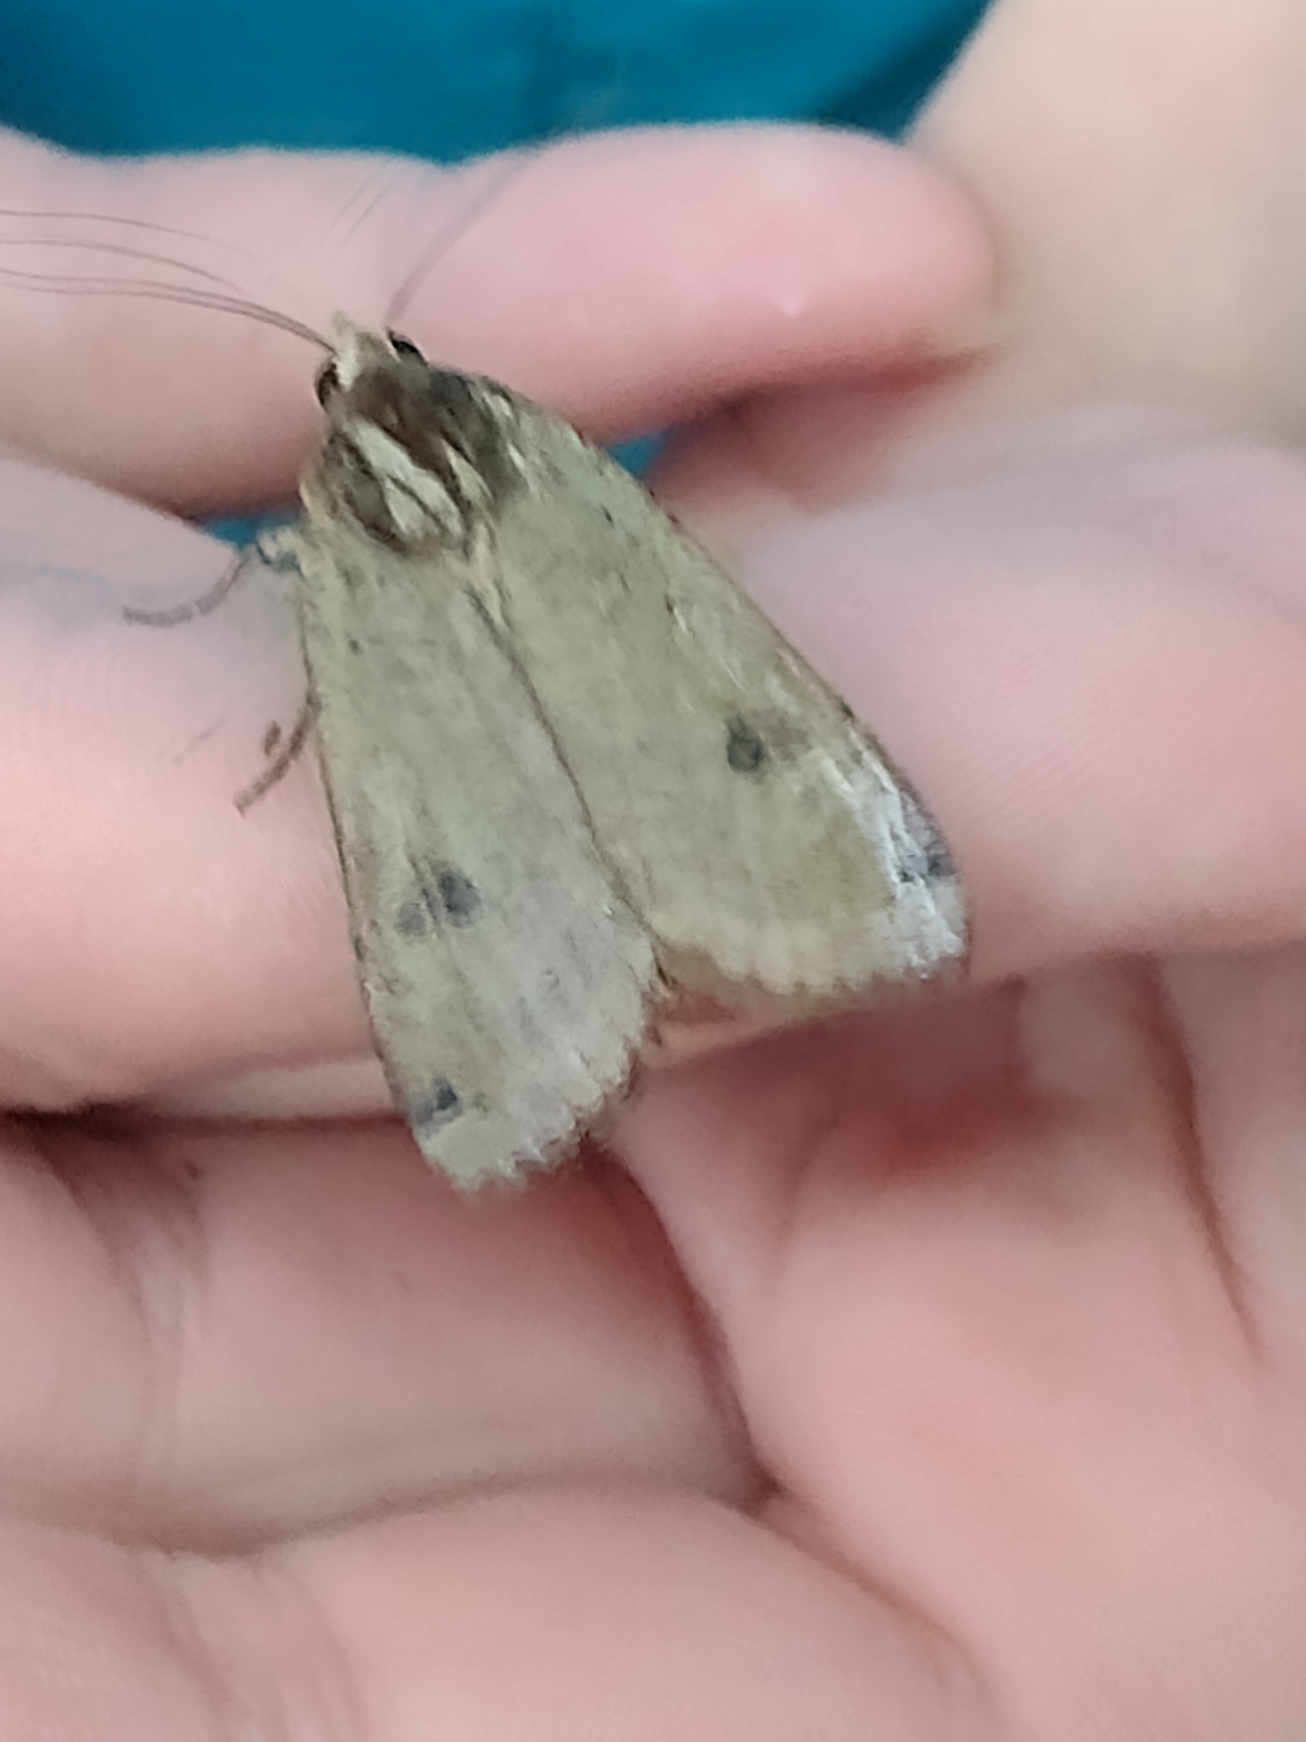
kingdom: Animalia
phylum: Arthropoda
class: Insecta
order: Lepidoptera
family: Noctuidae
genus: Noctua
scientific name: Noctua pronuba
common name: Stor smutugle
